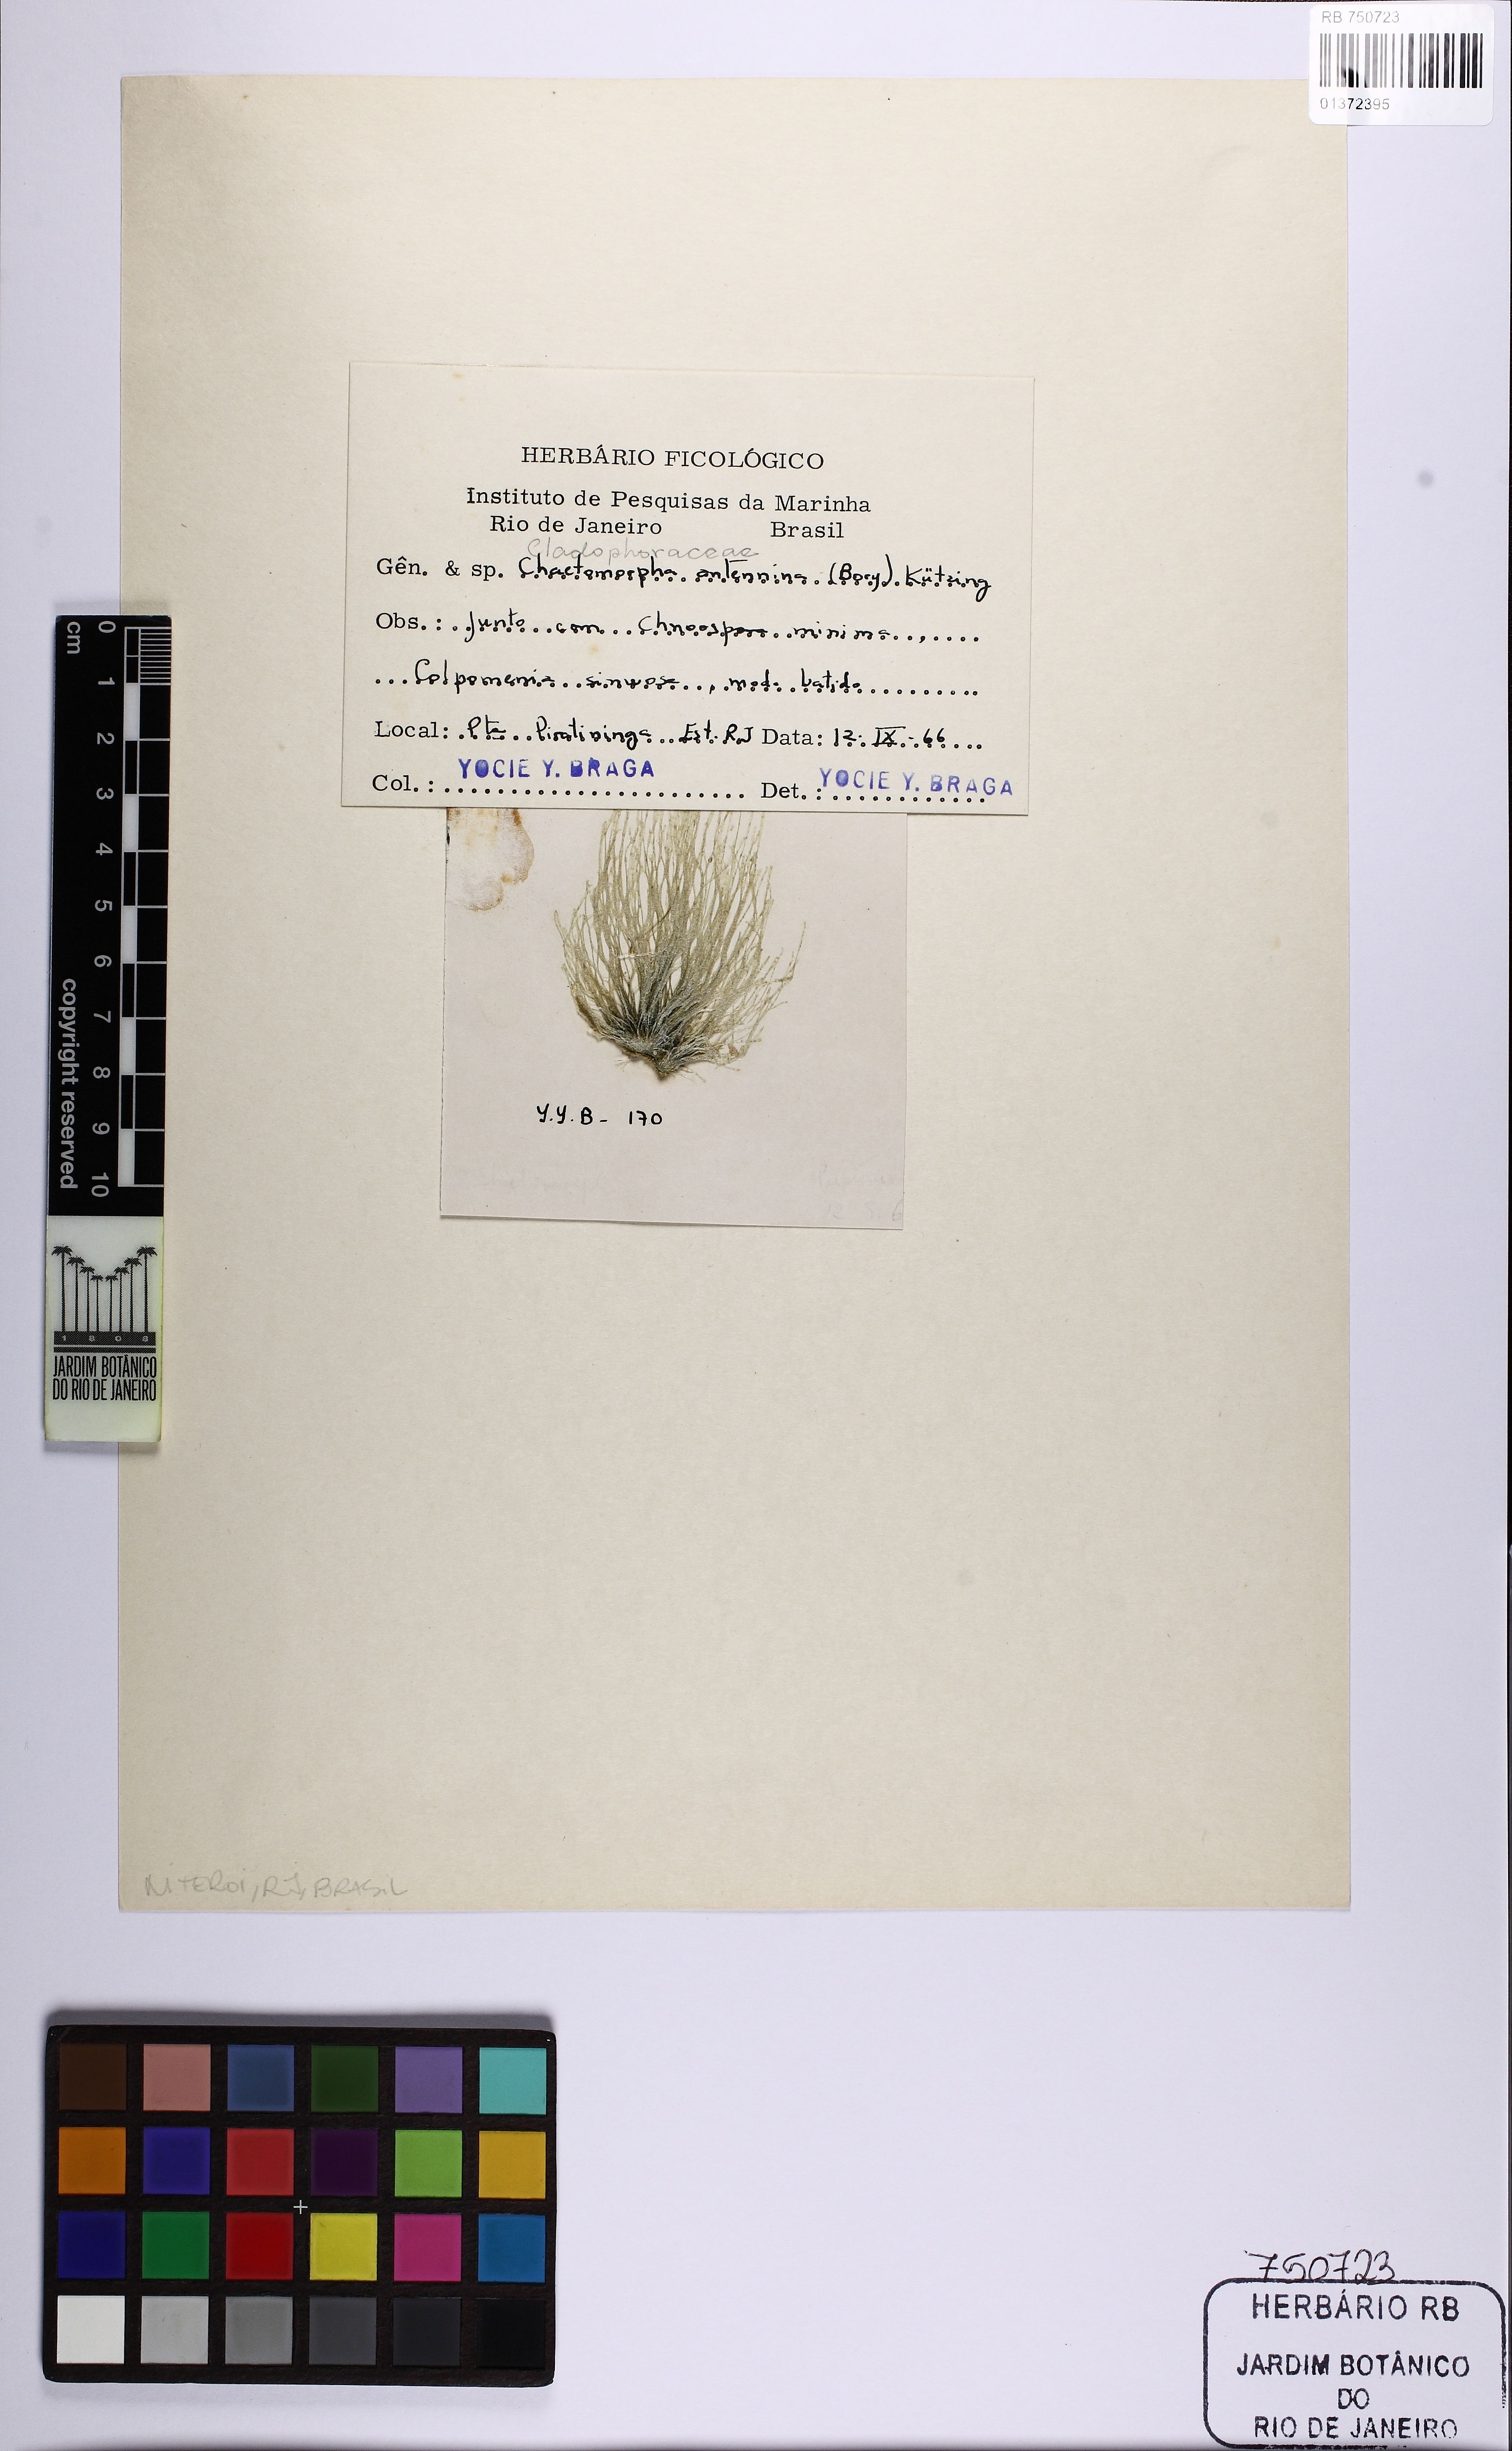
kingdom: Plantae
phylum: Chlorophyta
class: Ulvophyceae
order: Cladophorales
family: Cladophoraceae
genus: Chaetomorpha
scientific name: Chaetomorpha antennina
